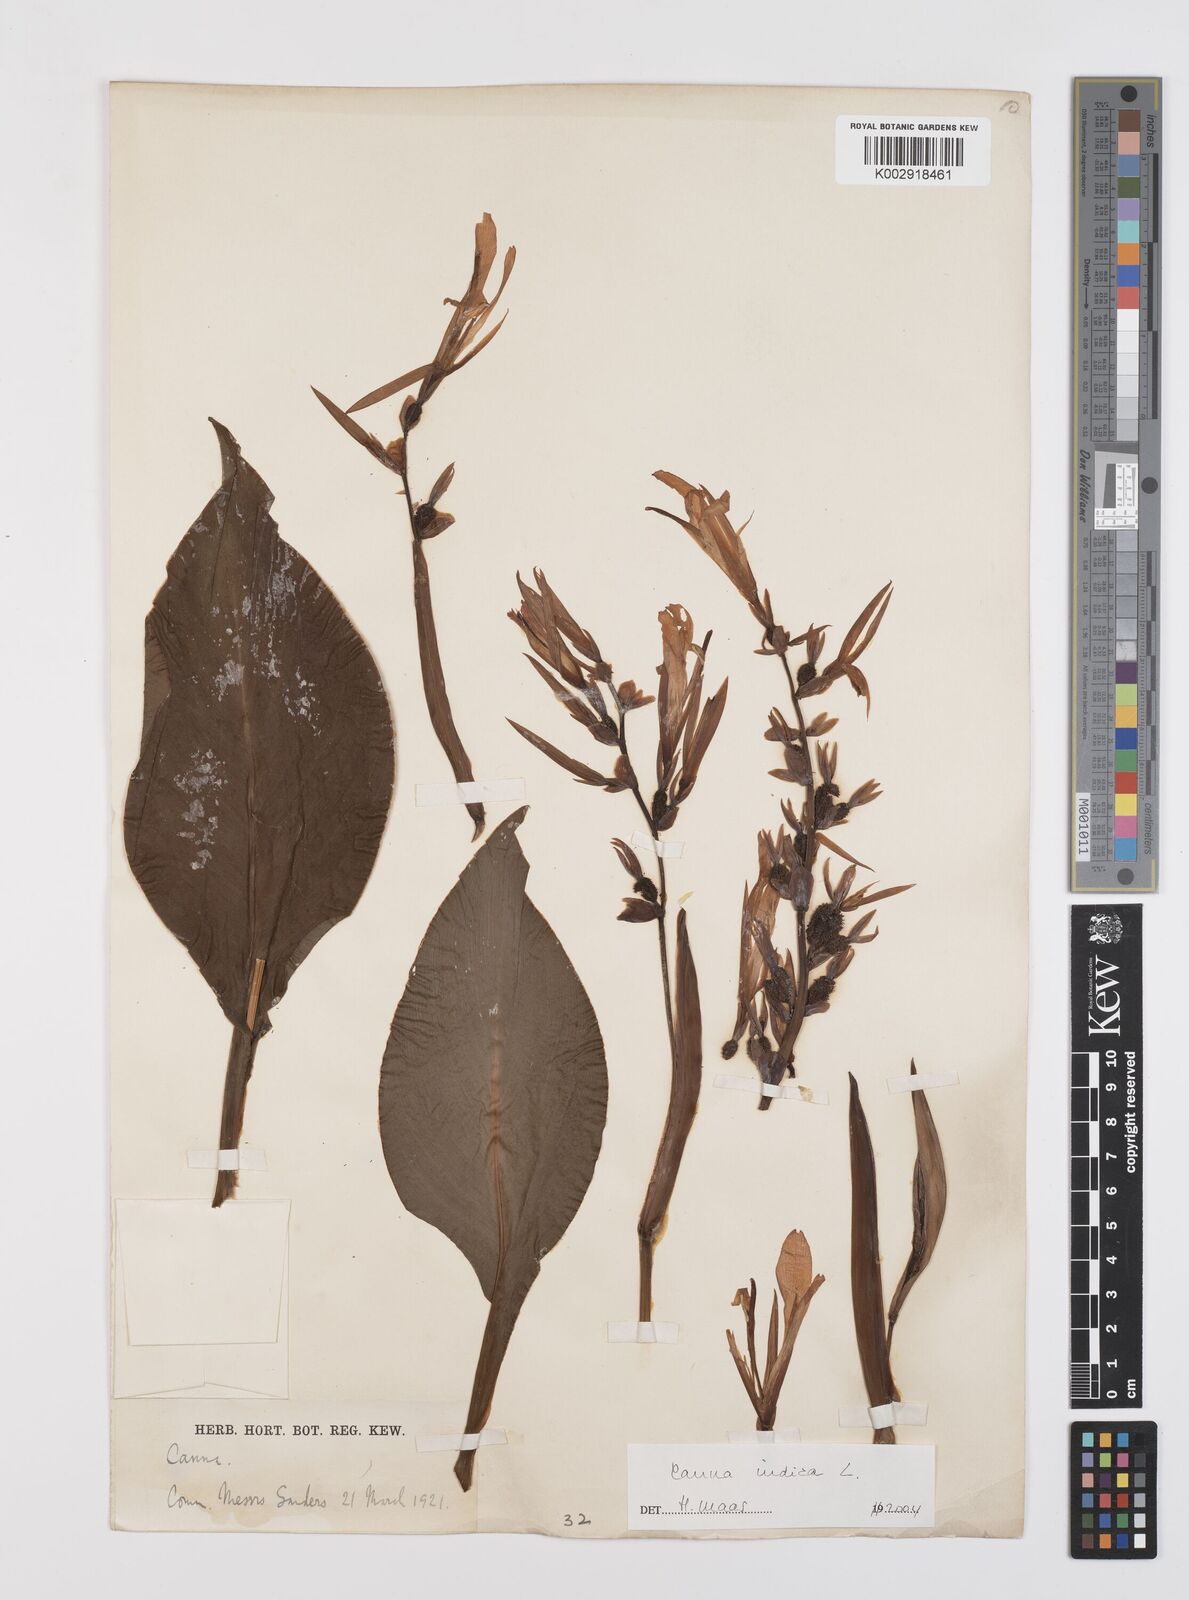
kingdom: Plantae
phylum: Tracheophyta
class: Liliopsida
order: Zingiberales
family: Cannaceae
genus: Canna
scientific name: Canna indica
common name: Indian shot
